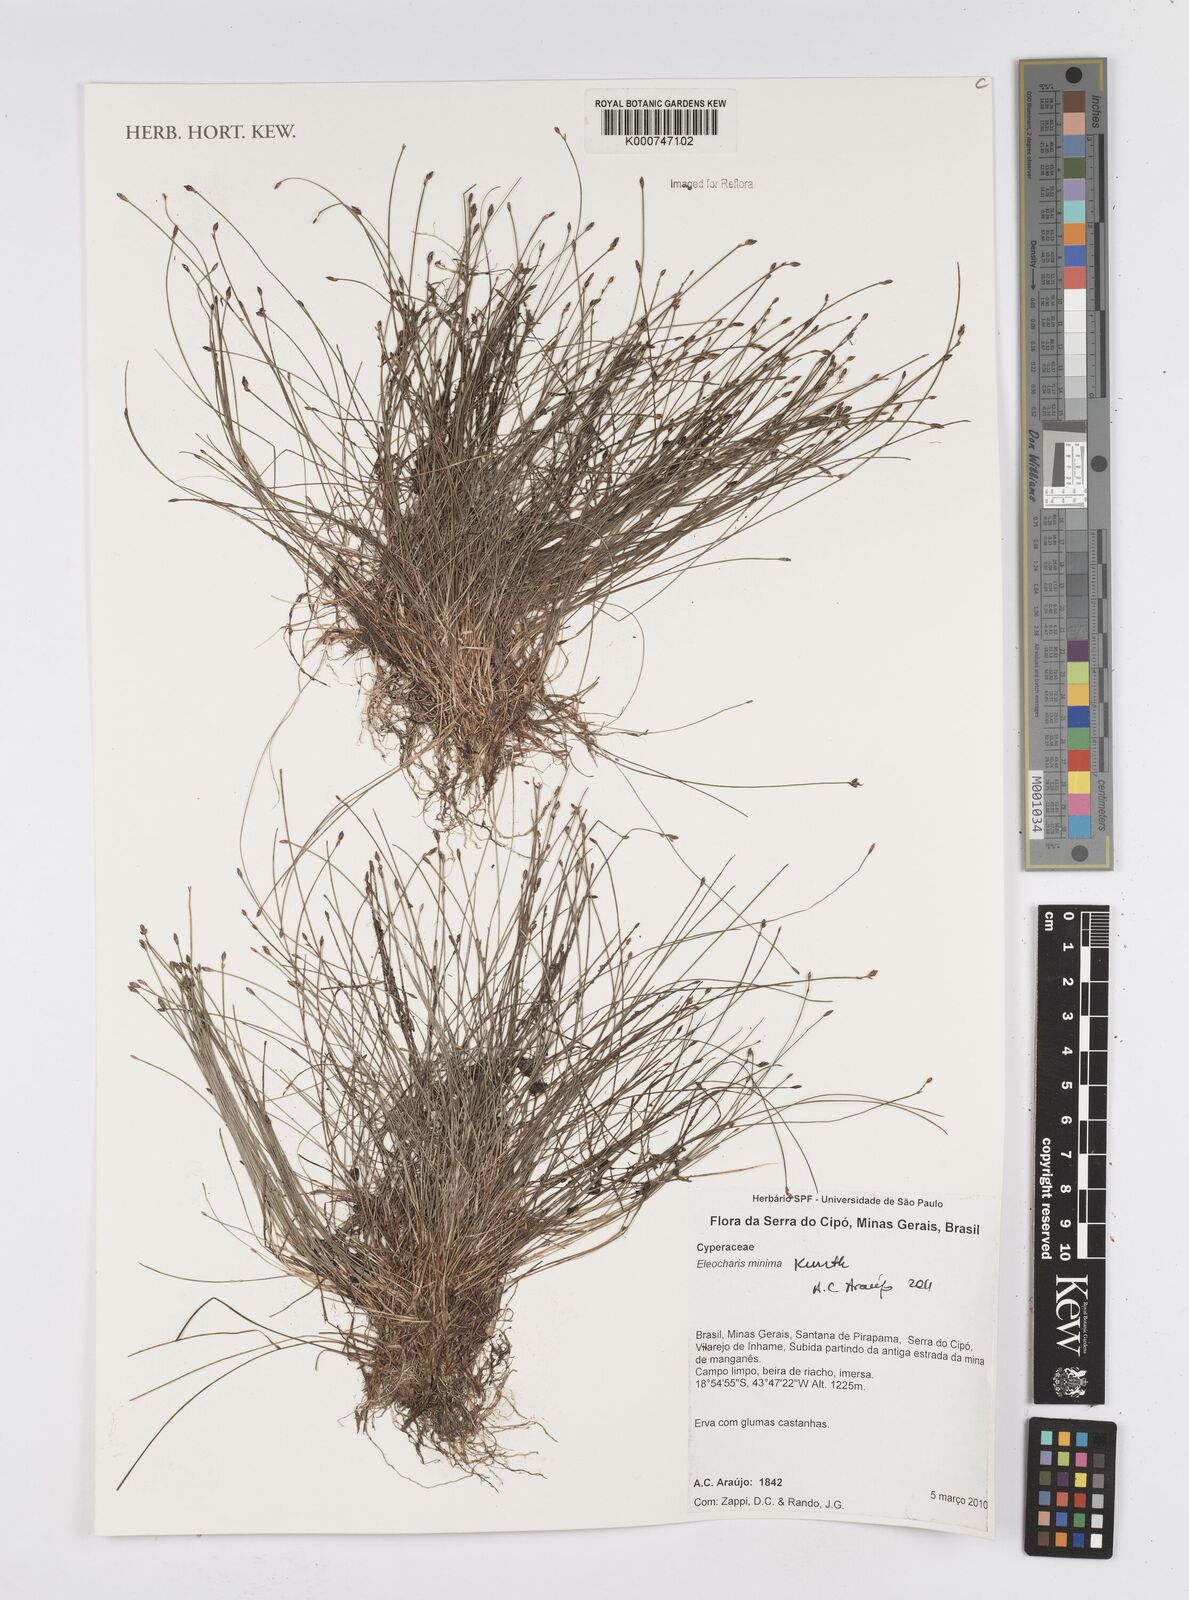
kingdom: Plantae
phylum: Tracheophyta
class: Liliopsida
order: Poales
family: Cyperaceae
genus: Eleocharis
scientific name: Eleocharis minima
